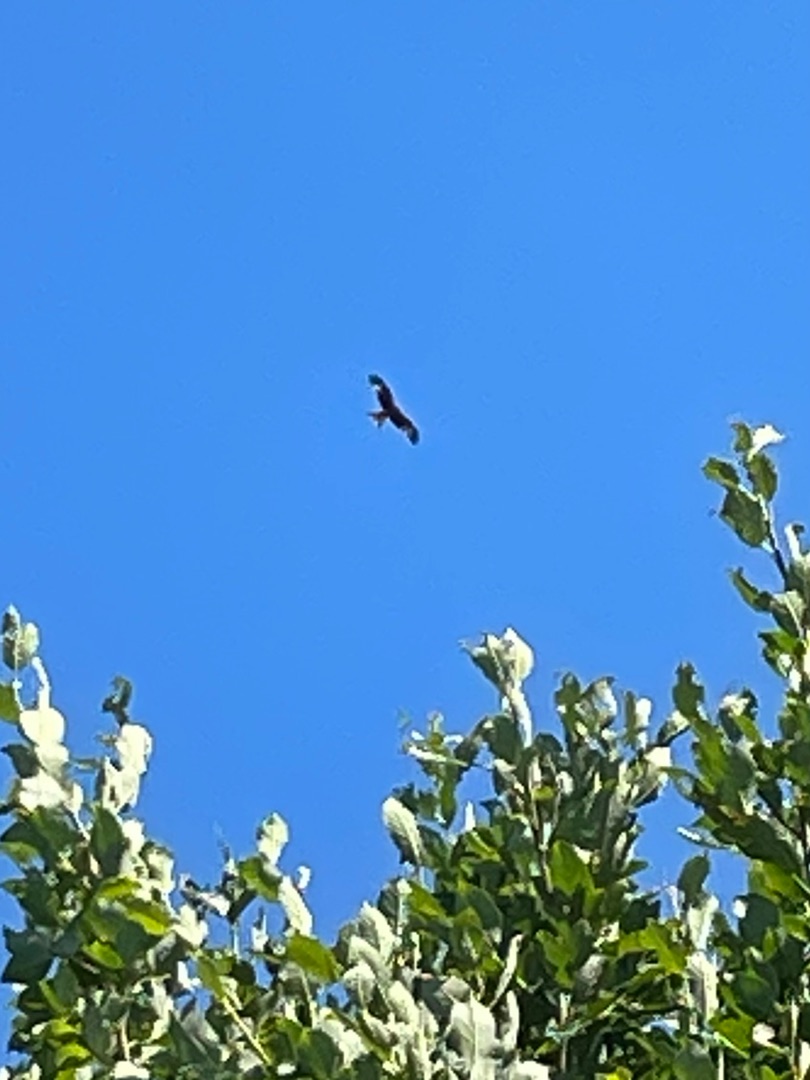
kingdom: Animalia
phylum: Chordata
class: Aves
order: Accipitriformes
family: Accipitridae
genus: Milvus
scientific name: Milvus milvus
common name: Rød glente
